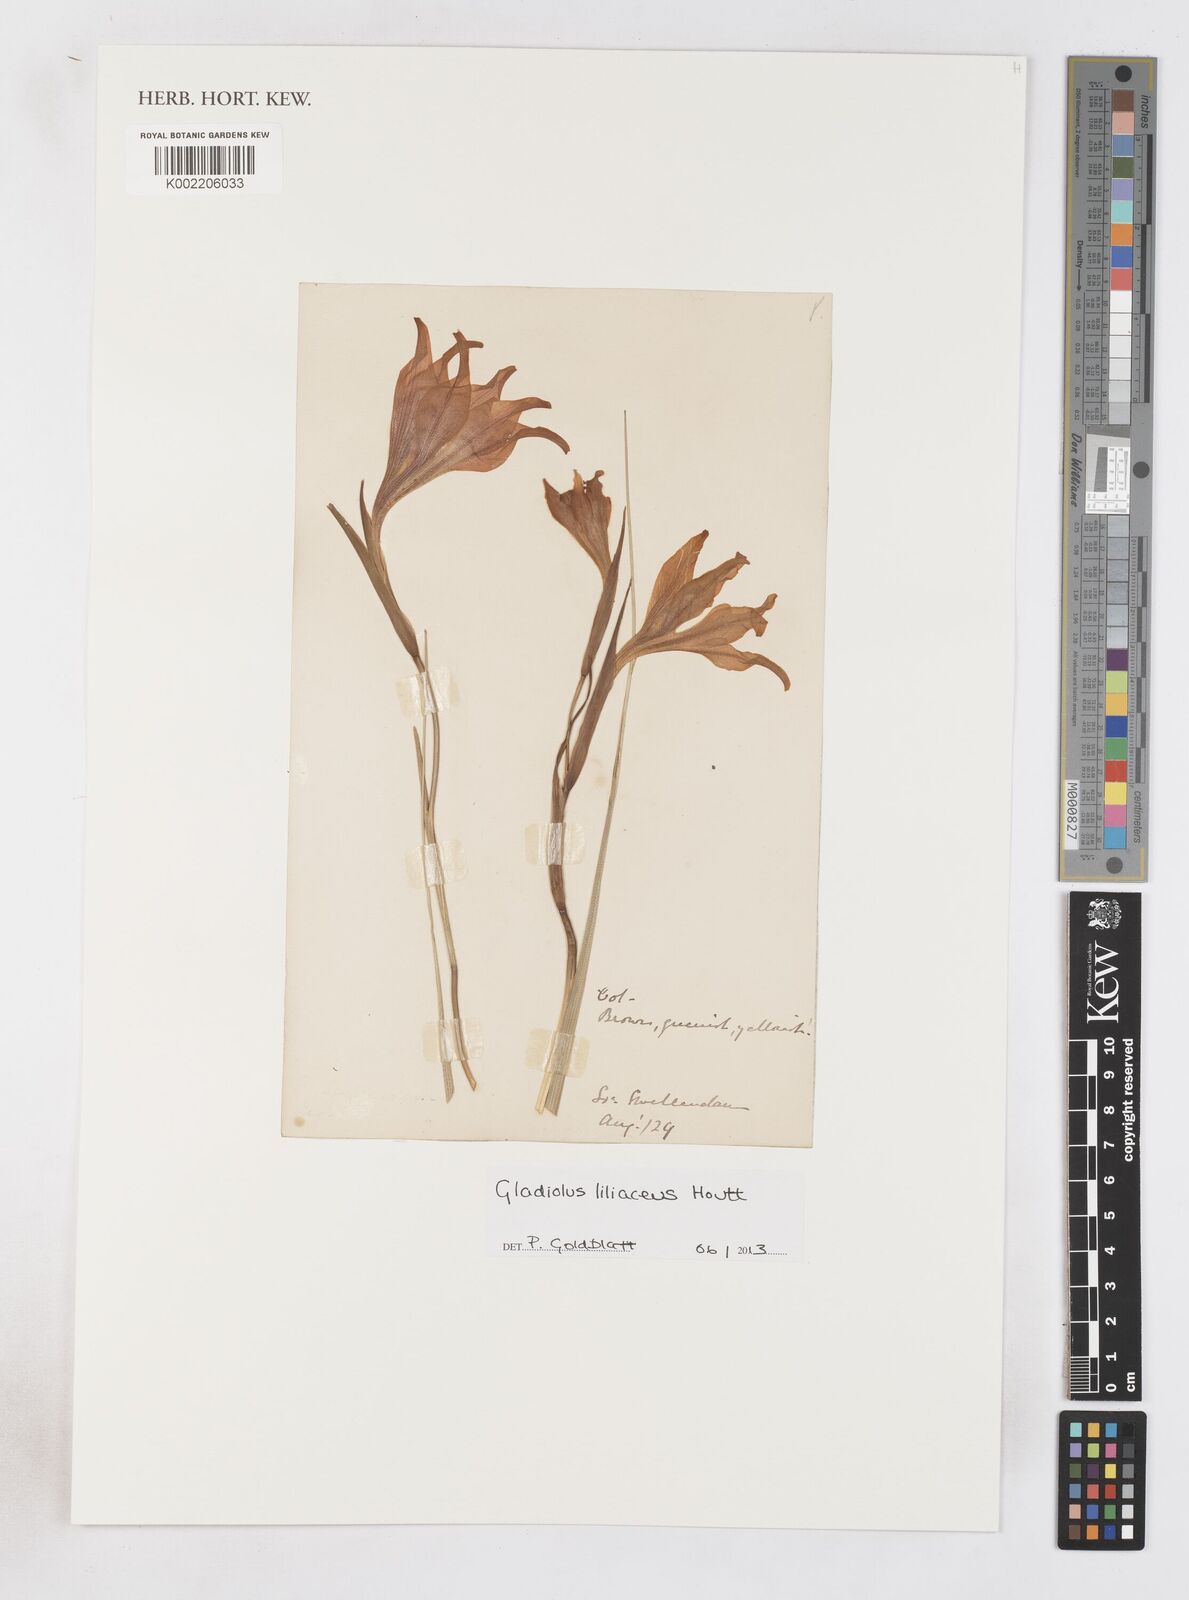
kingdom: Plantae
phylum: Tracheophyta
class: Liliopsida
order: Asparagales
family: Iridaceae
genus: Gladiolus
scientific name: Gladiolus liliaceus
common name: Large brown afrikaner
